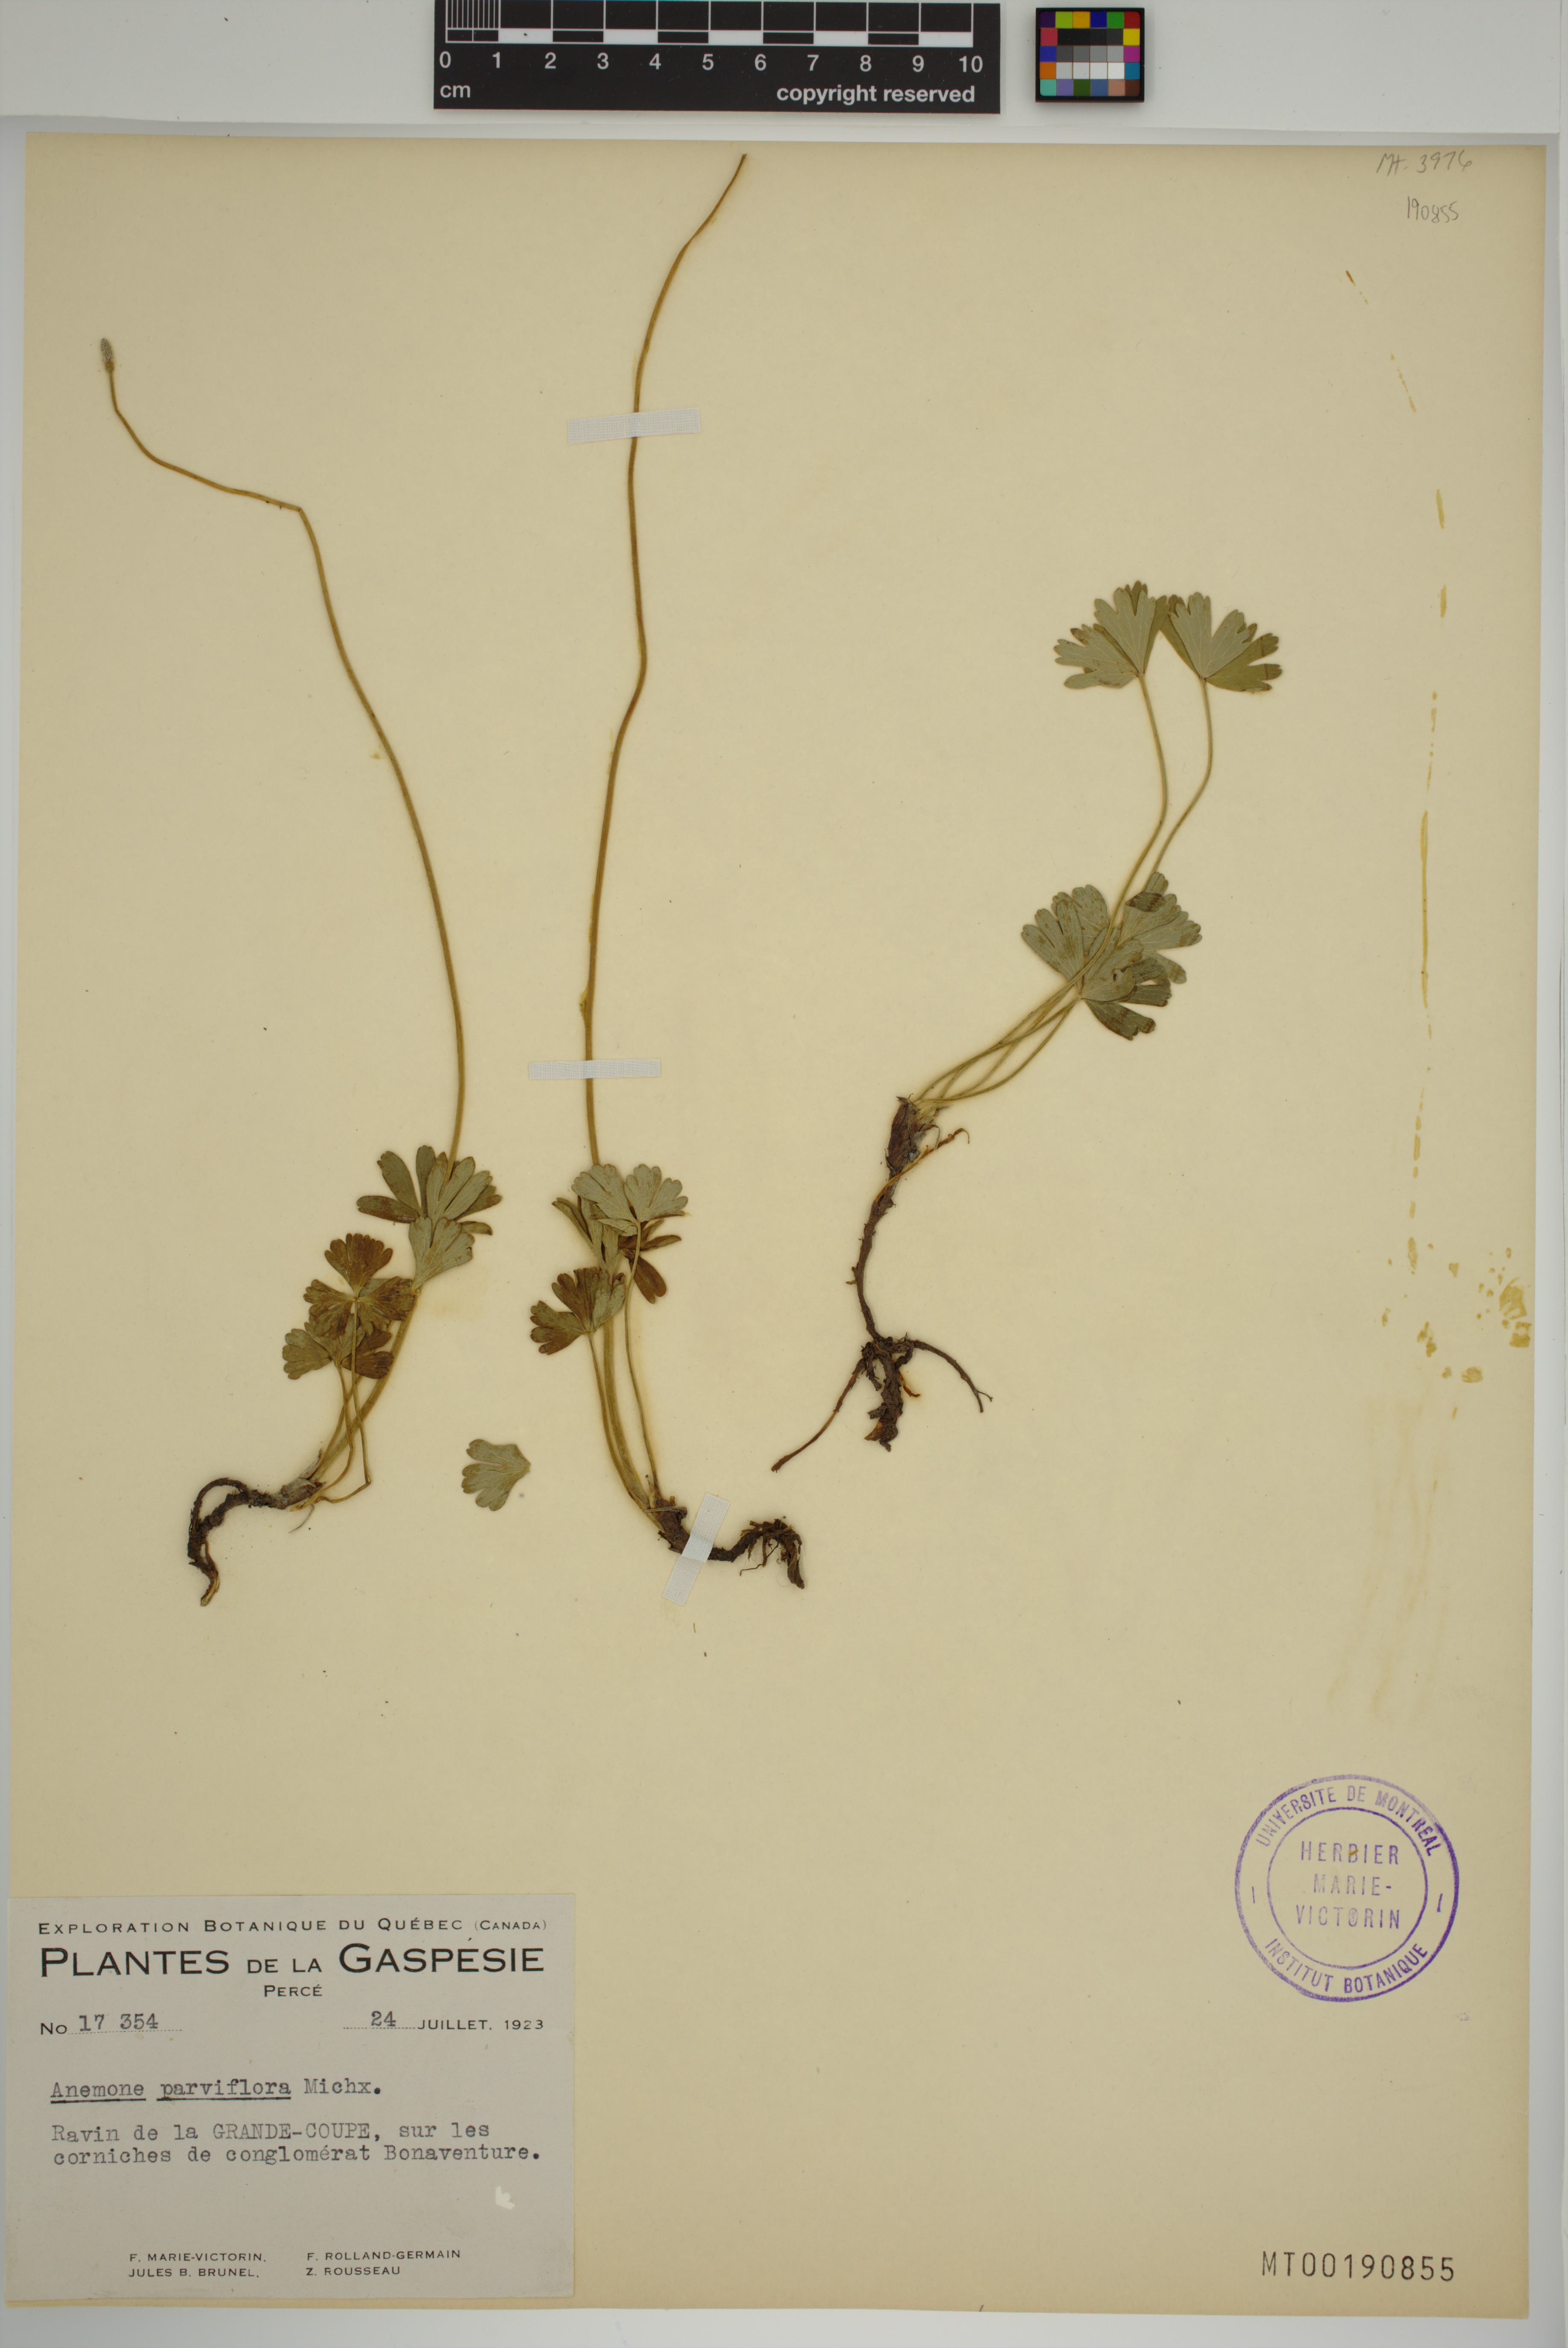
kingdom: Plantae
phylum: Tracheophyta
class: Magnoliopsida
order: Ranunculales
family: Ranunculaceae
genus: Anemone
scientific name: Anemone parviflora
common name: Northern anemone
